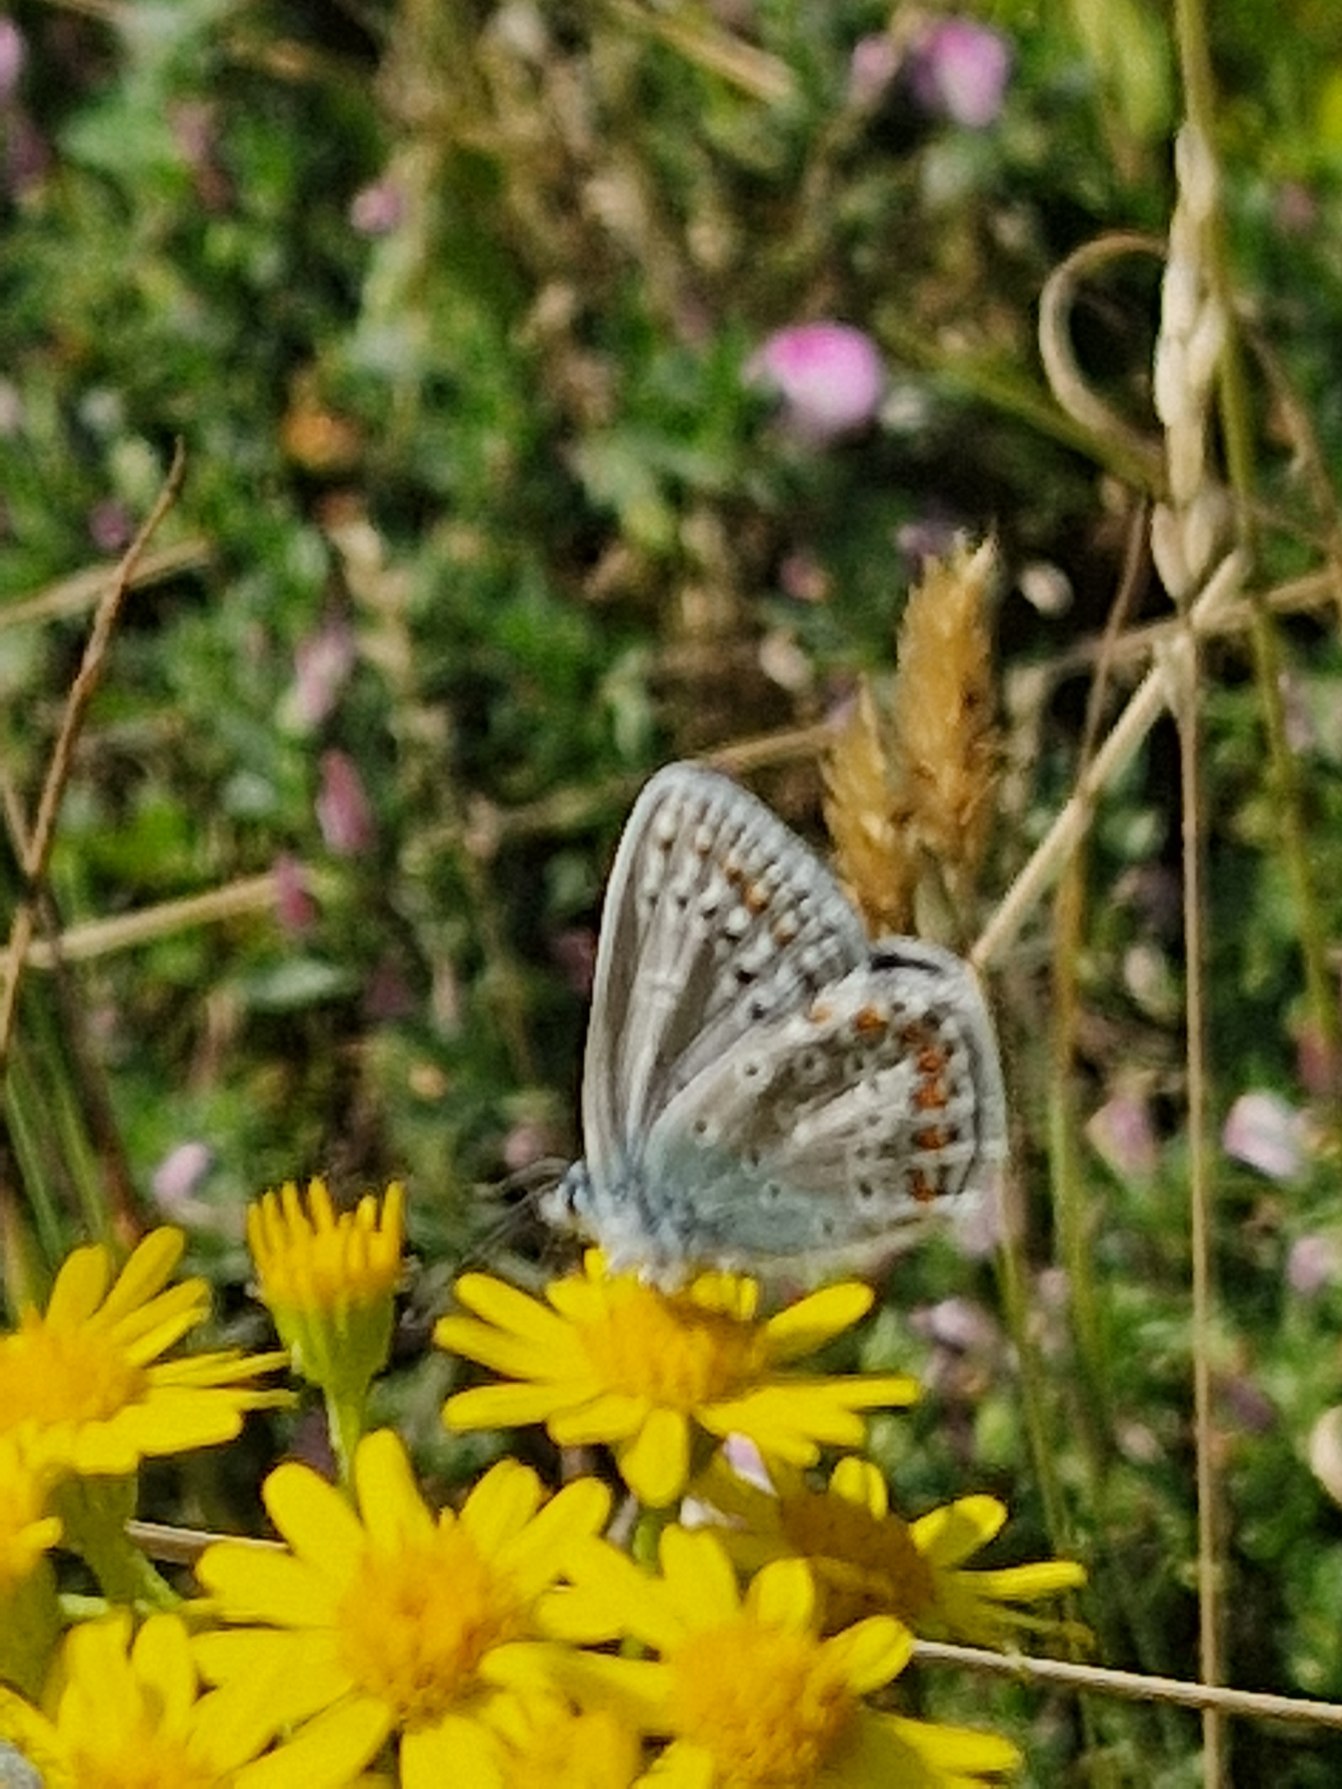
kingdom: Animalia
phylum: Arthropoda
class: Insecta
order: Lepidoptera
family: Lycaenidae
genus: Polyommatus
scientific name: Polyommatus icarus
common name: Almindelig blåfugl
